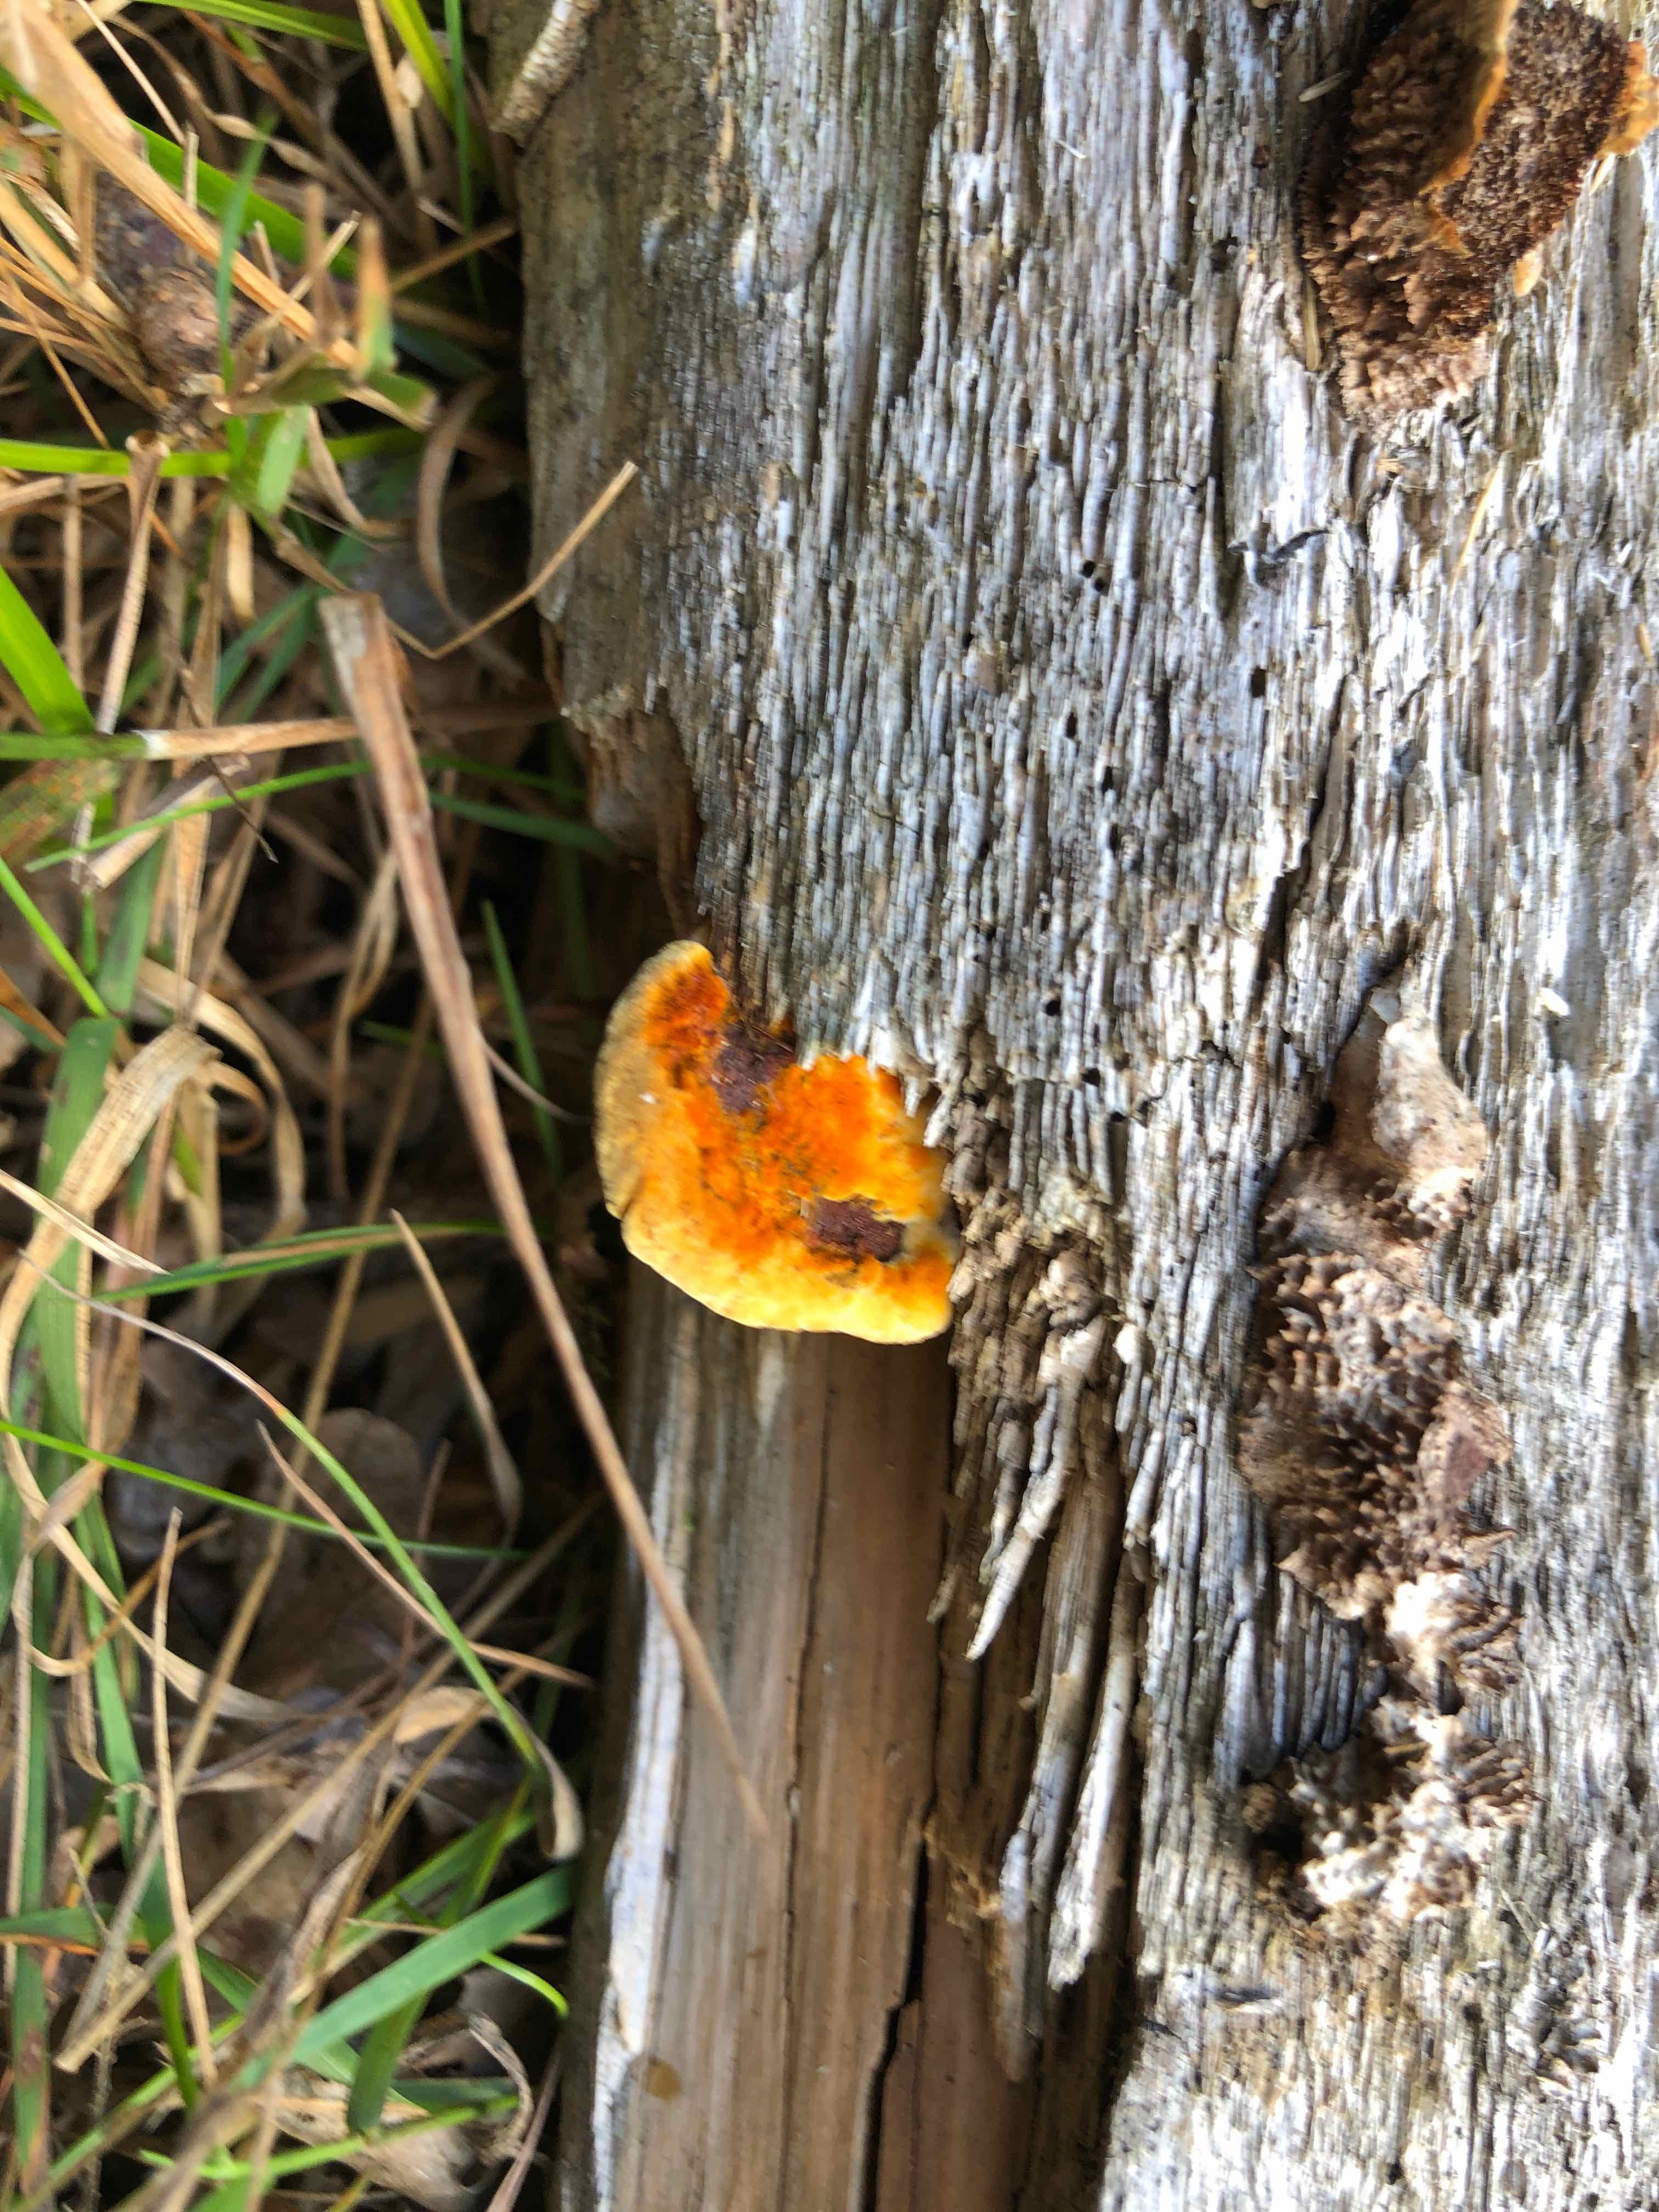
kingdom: Fungi
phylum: Basidiomycota
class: Agaricomycetes
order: Gloeophyllales
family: Gloeophyllaceae
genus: Gloeophyllum
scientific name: Gloeophyllum sepiarium
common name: fyrre-korkhat
